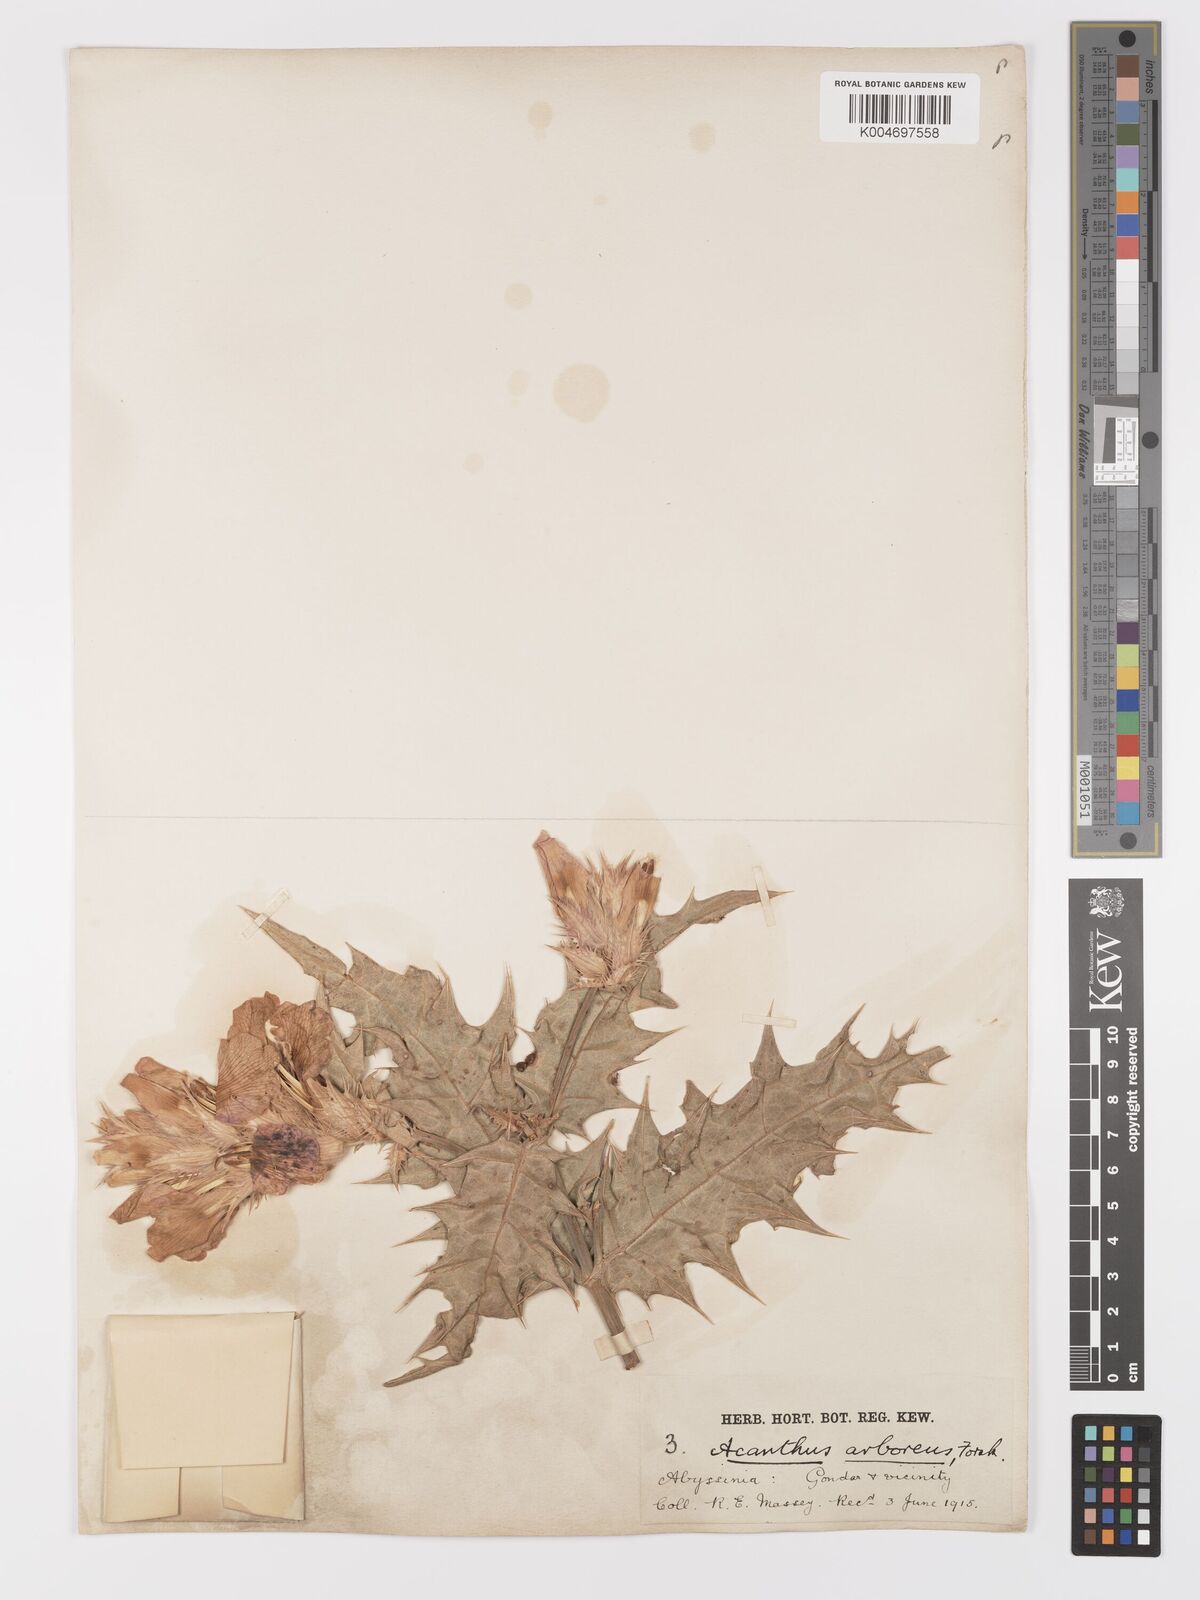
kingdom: Plantae
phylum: Tracheophyta
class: Magnoliopsida
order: Lamiales
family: Acanthaceae
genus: Acanthus
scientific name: Acanthus polystachyus
